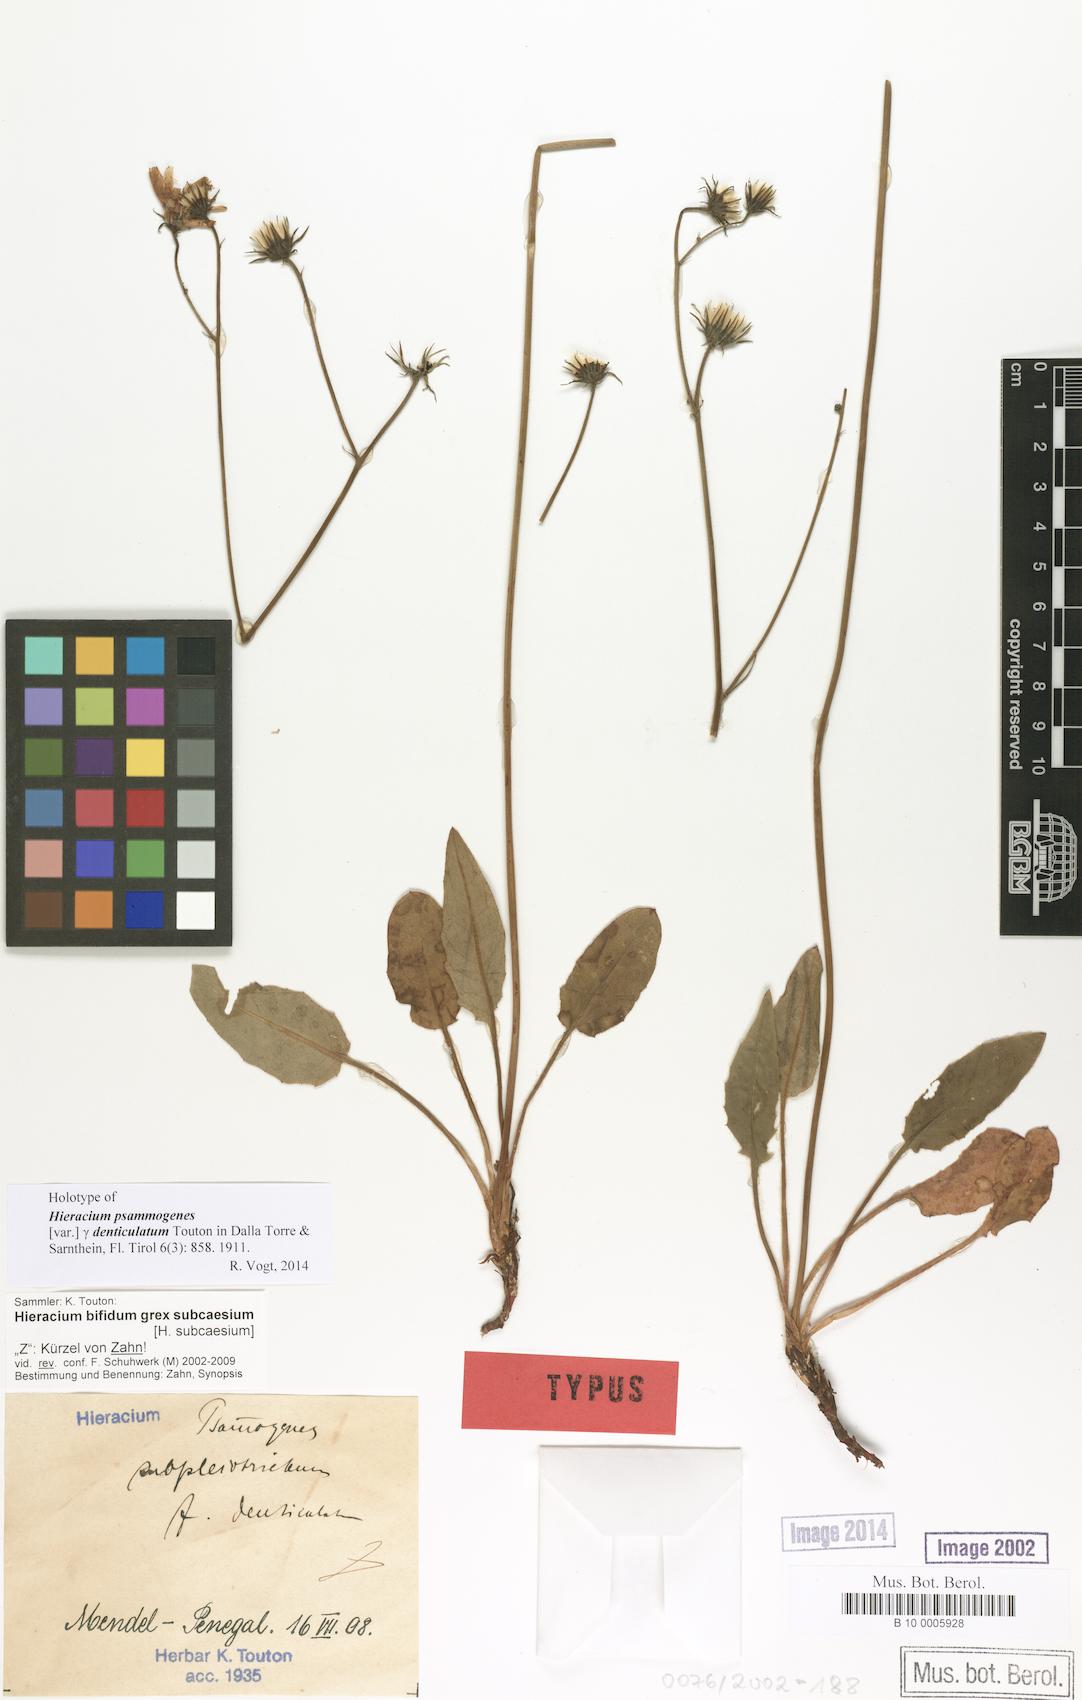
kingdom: Plantae
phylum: Tracheophyta
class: Magnoliopsida
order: Asterales
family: Asteraceae
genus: Hieracium
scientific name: Hieracium psammogenes
